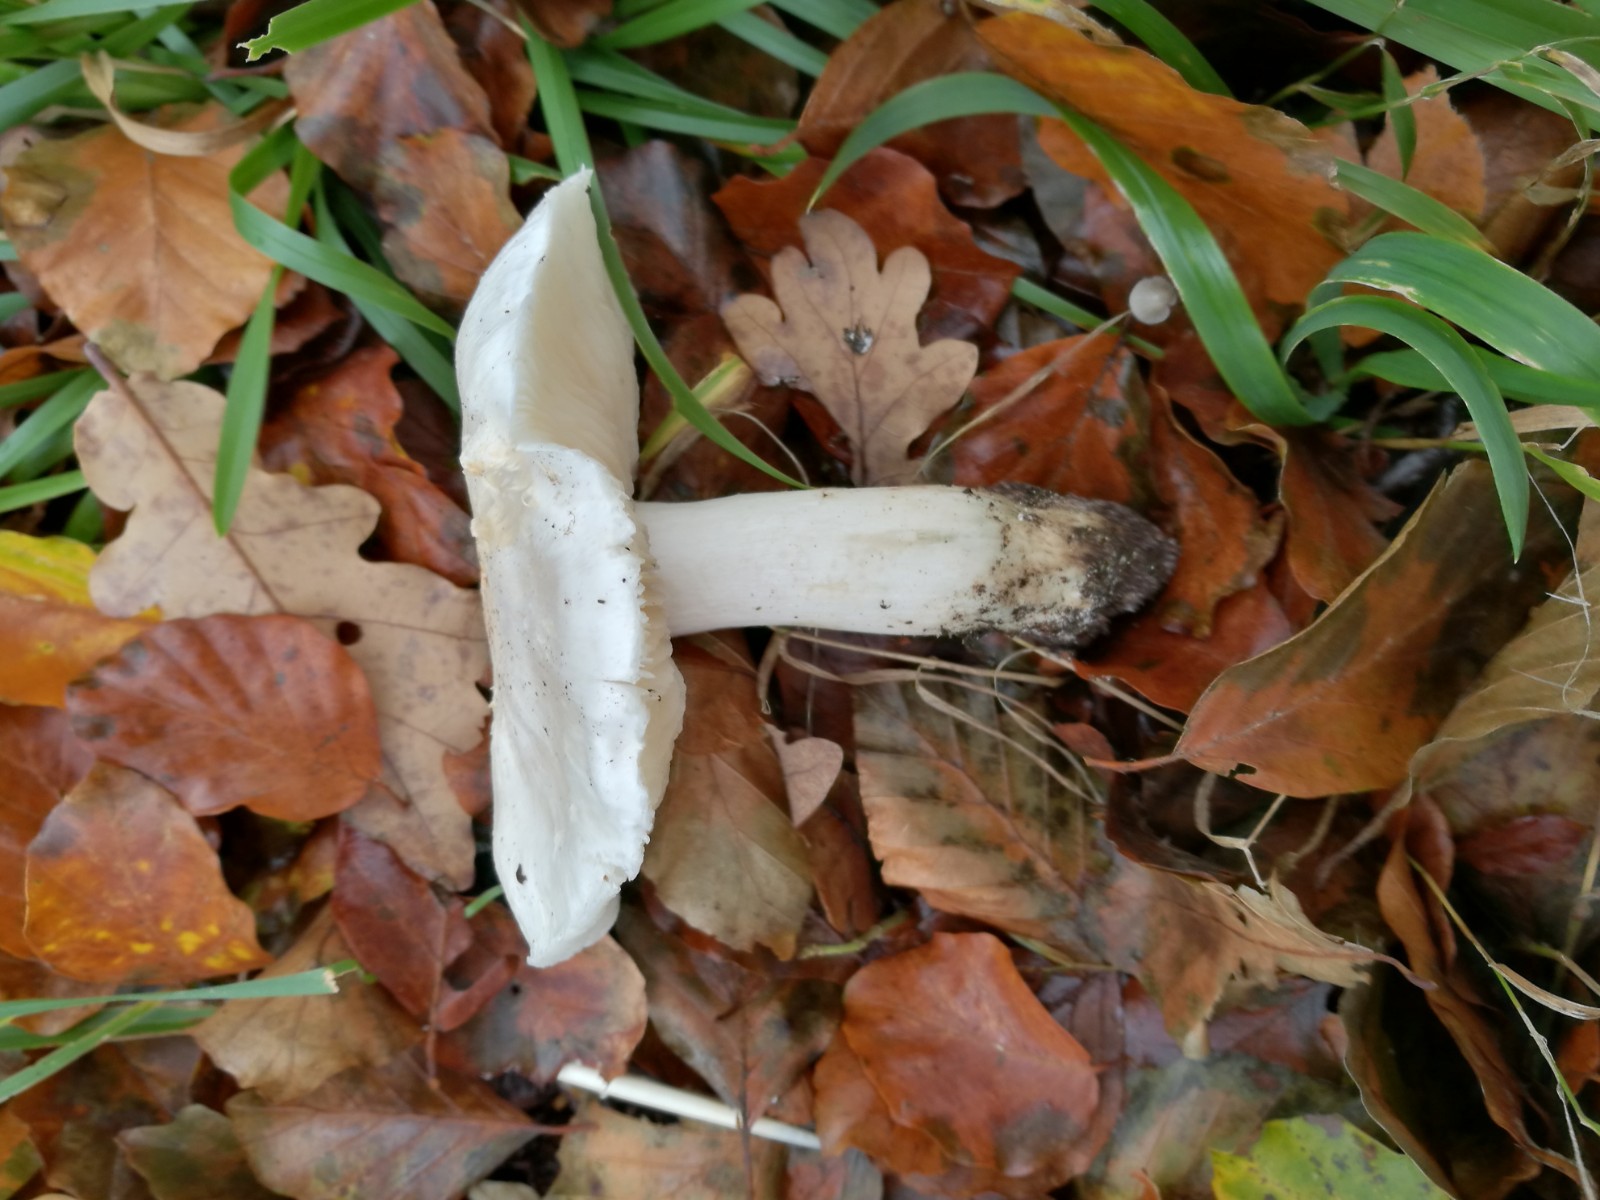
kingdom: Fungi
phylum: Basidiomycota
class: Agaricomycetes
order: Agaricales
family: Tricholomataceae
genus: Tricholoma
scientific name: Tricholoma columbetta
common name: silke-ridderhat
